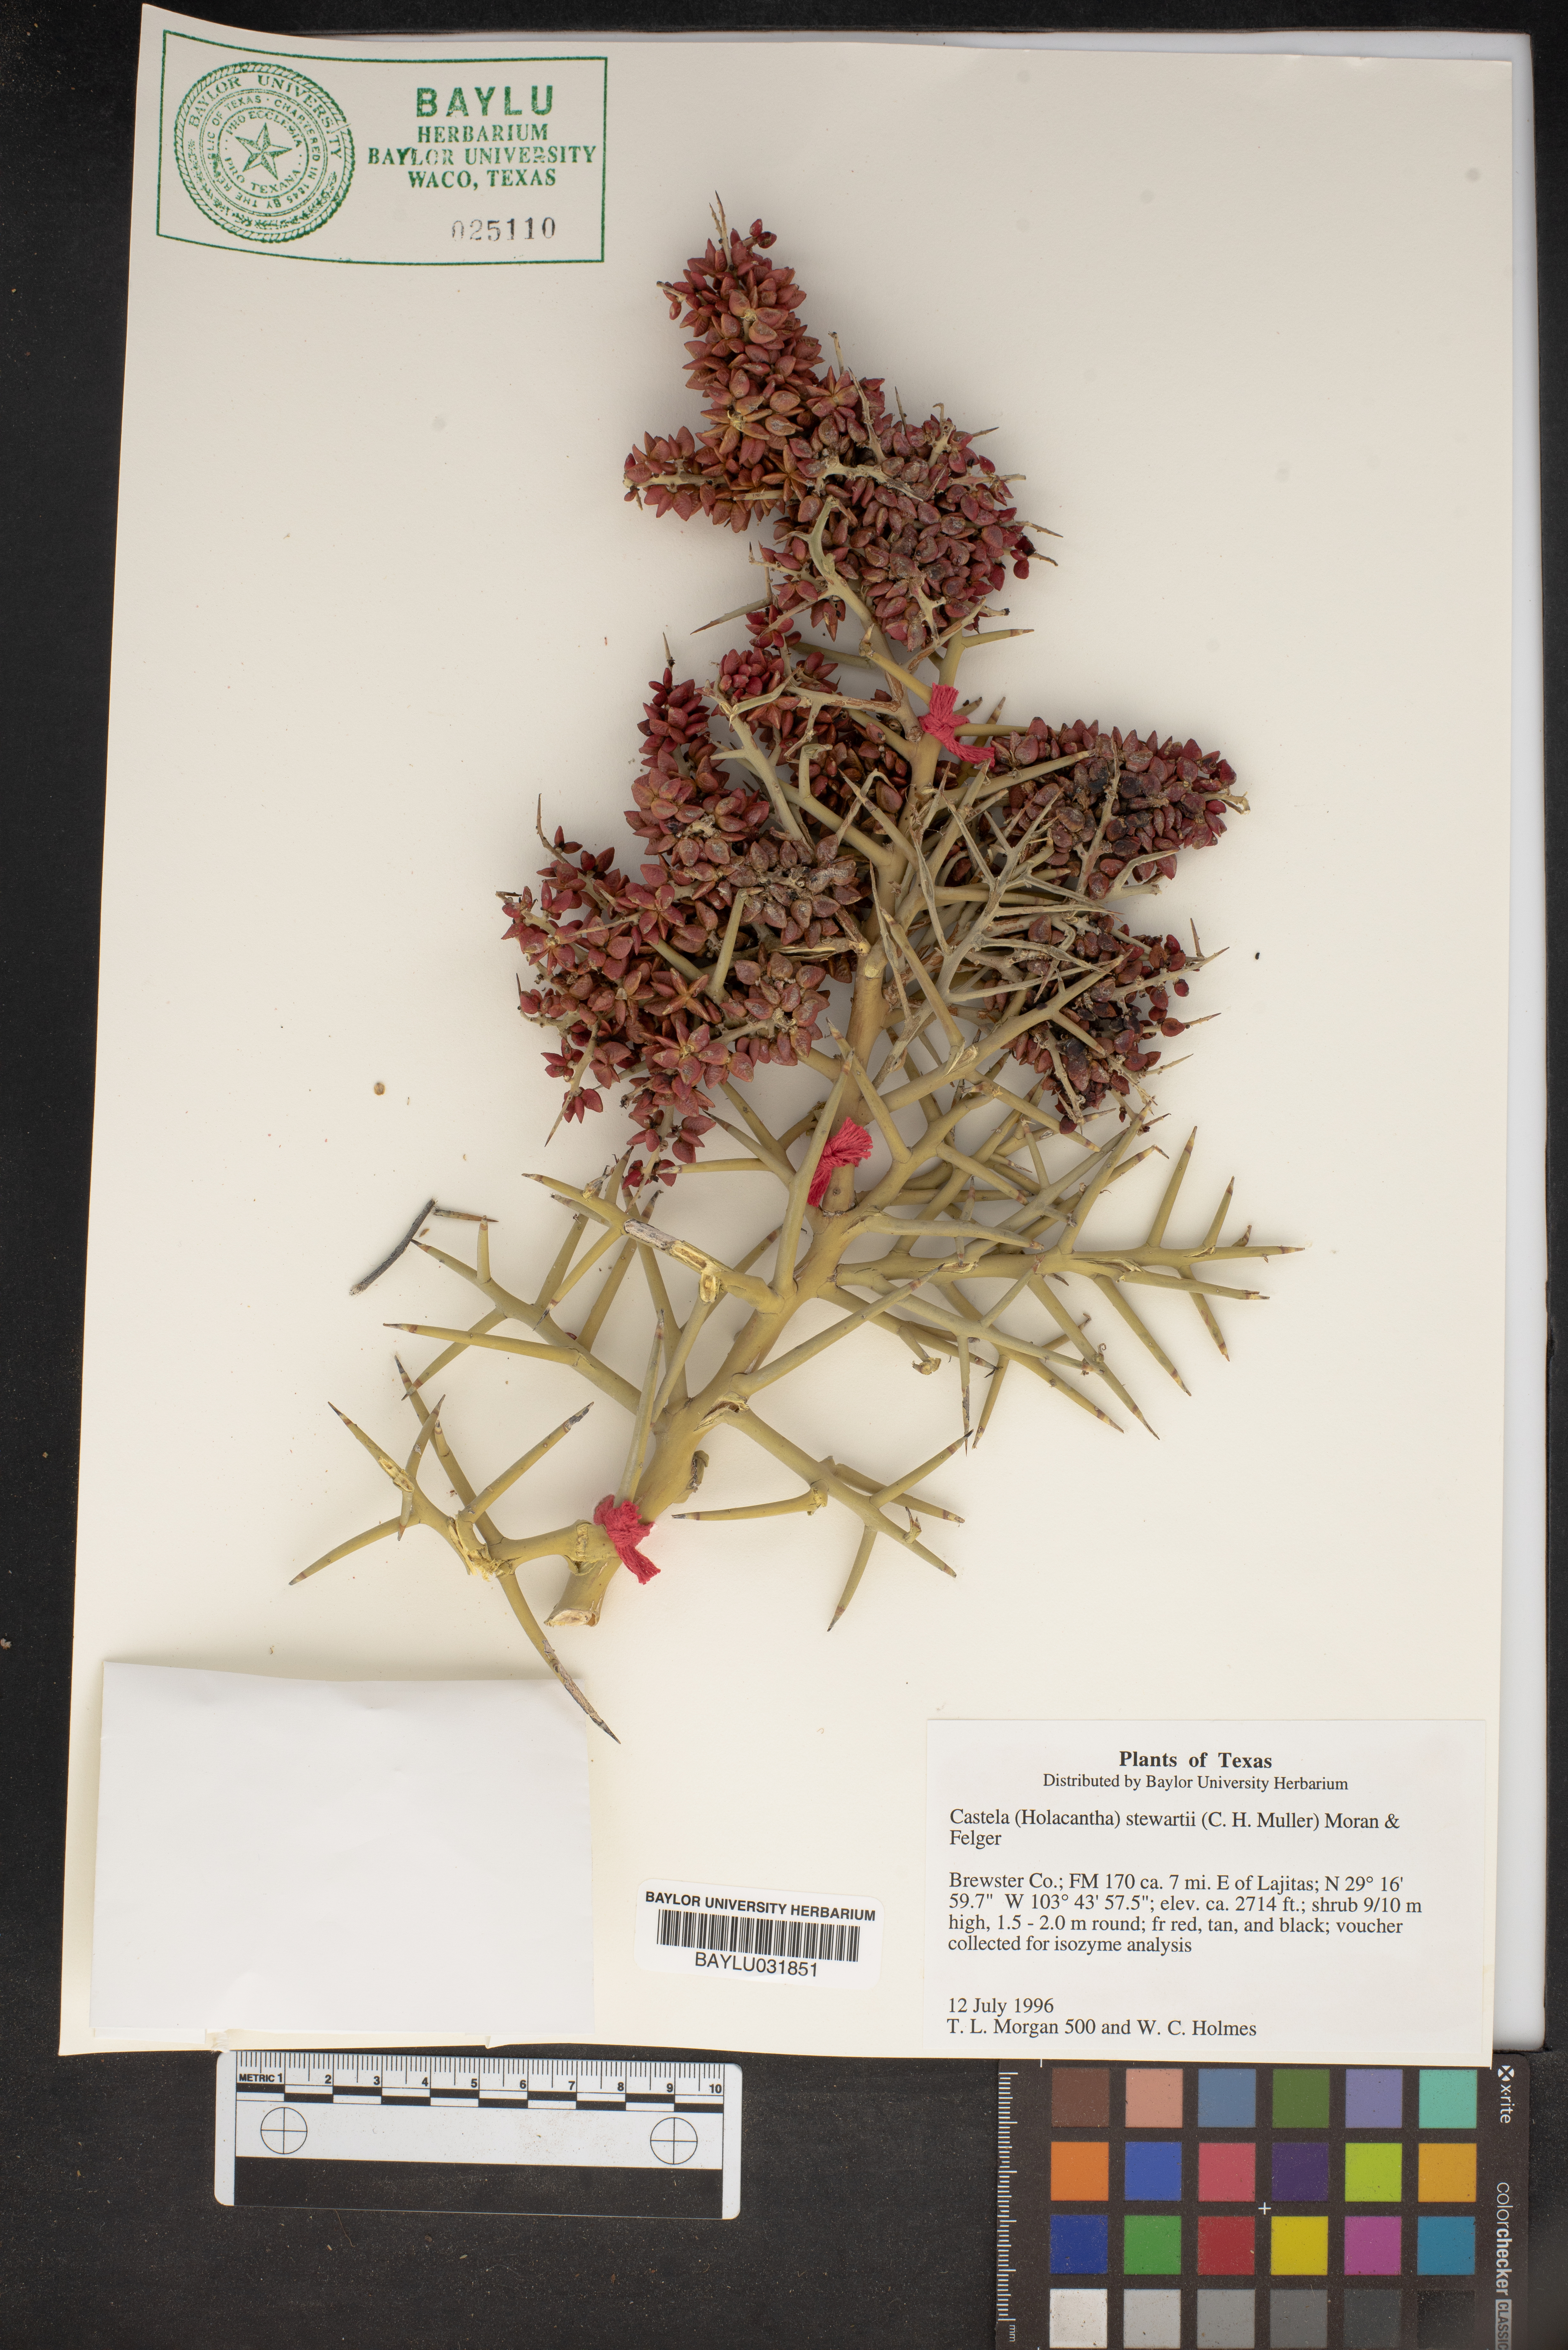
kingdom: Plantae
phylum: Tracheophyta
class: Magnoliopsida
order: Sapindales
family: Simaroubaceae
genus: Holacantha
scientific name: Holacantha stewartii
